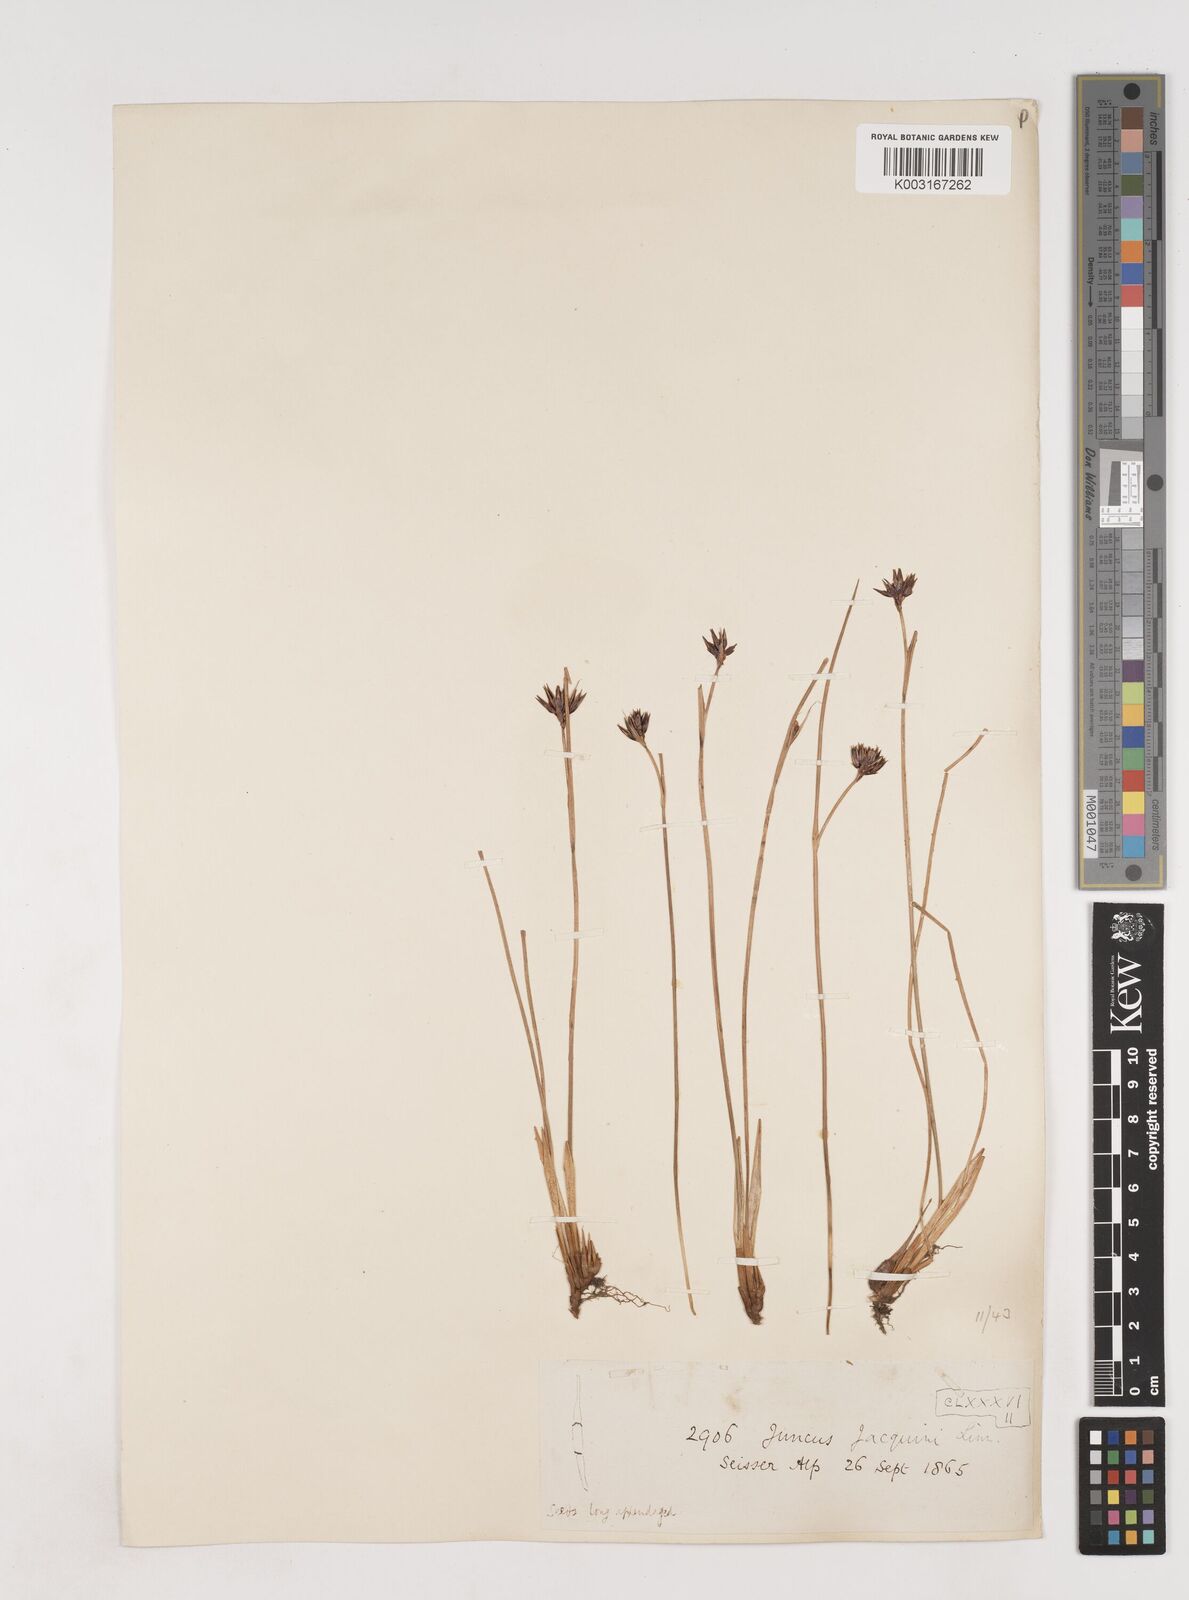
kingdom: Plantae
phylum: Tracheophyta
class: Liliopsida
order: Poales
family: Juncaceae
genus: Juncus
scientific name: Juncus jacquinii
